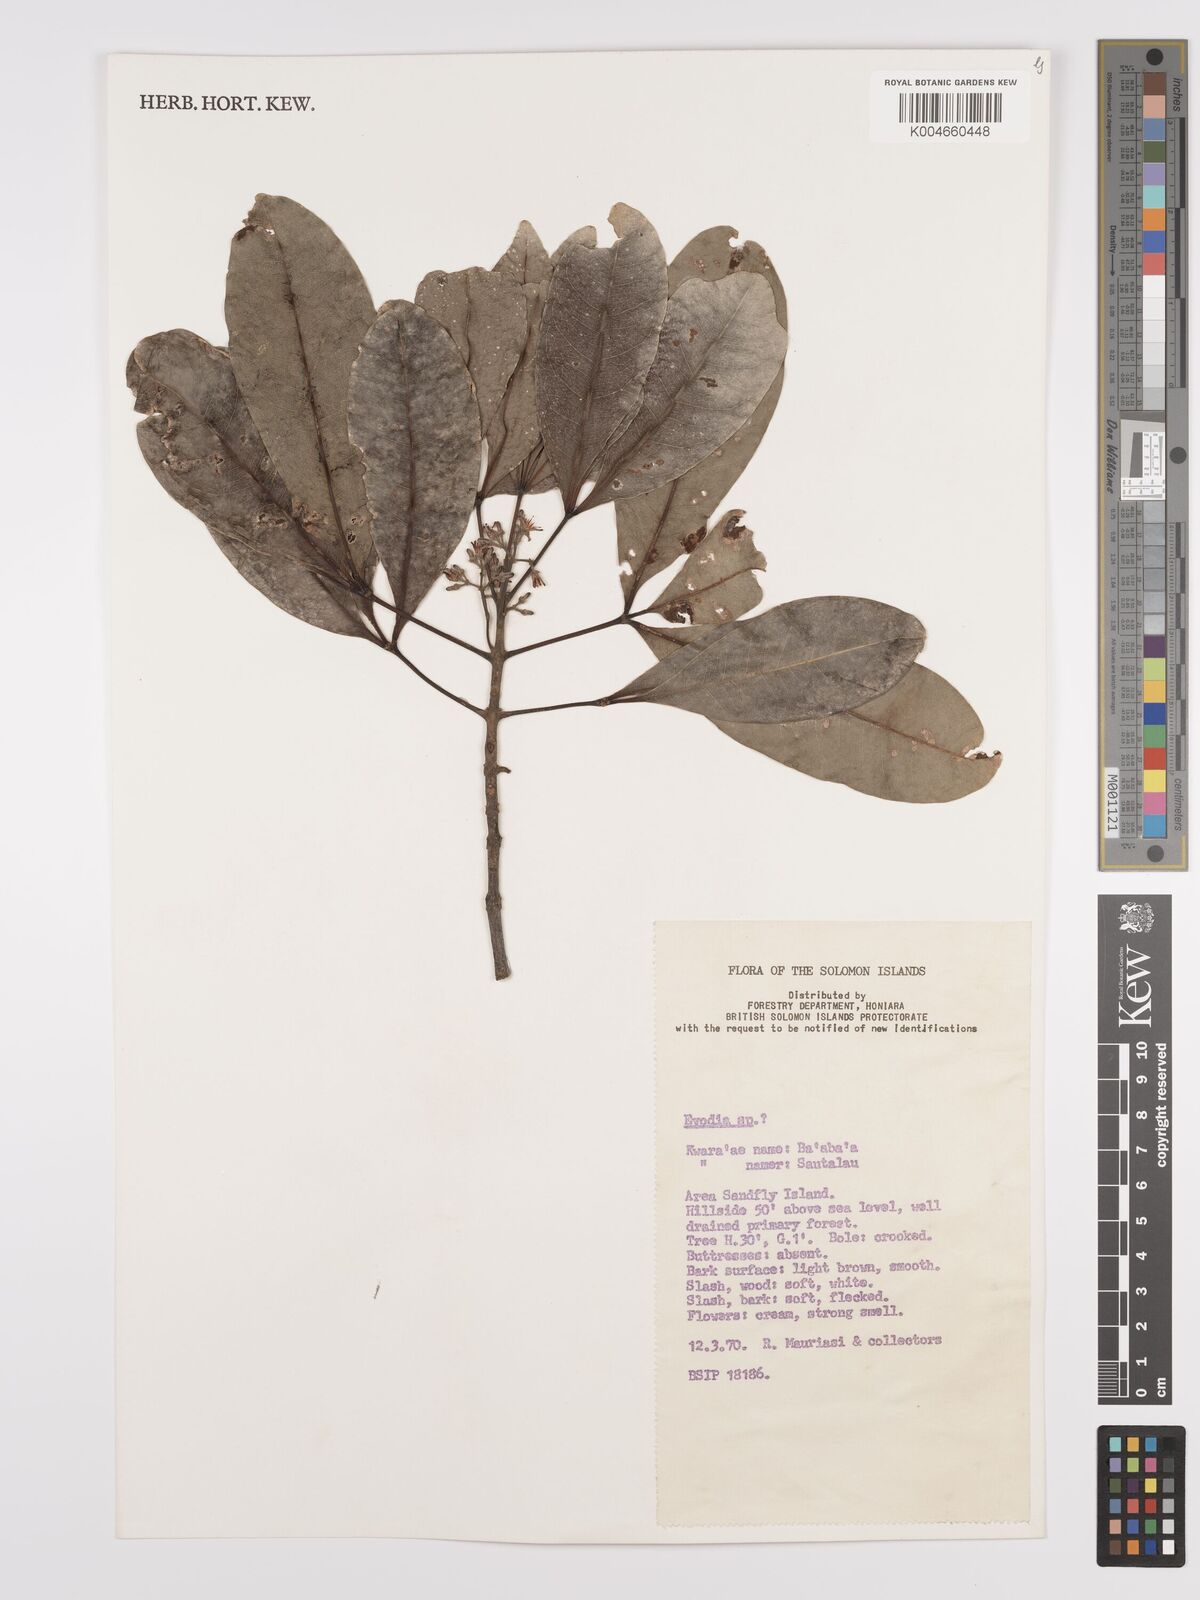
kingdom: Plantae
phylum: Tracheophyta
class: Magnoliopsida
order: Sapindales
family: Rutaceae
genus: Euodia
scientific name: Euodia
